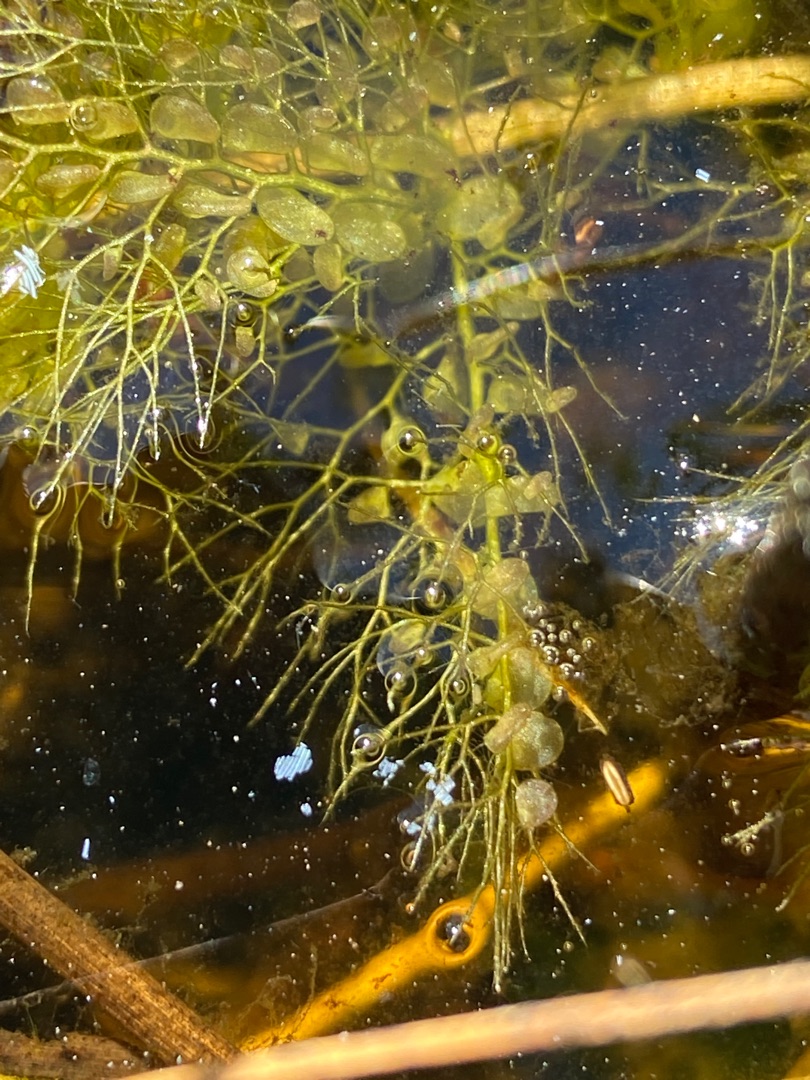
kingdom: Plantae
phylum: Tracheophyta
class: Magnoliopsida
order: Lamiales
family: Lentibulariaceae
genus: Utricularia
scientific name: Utricularia
